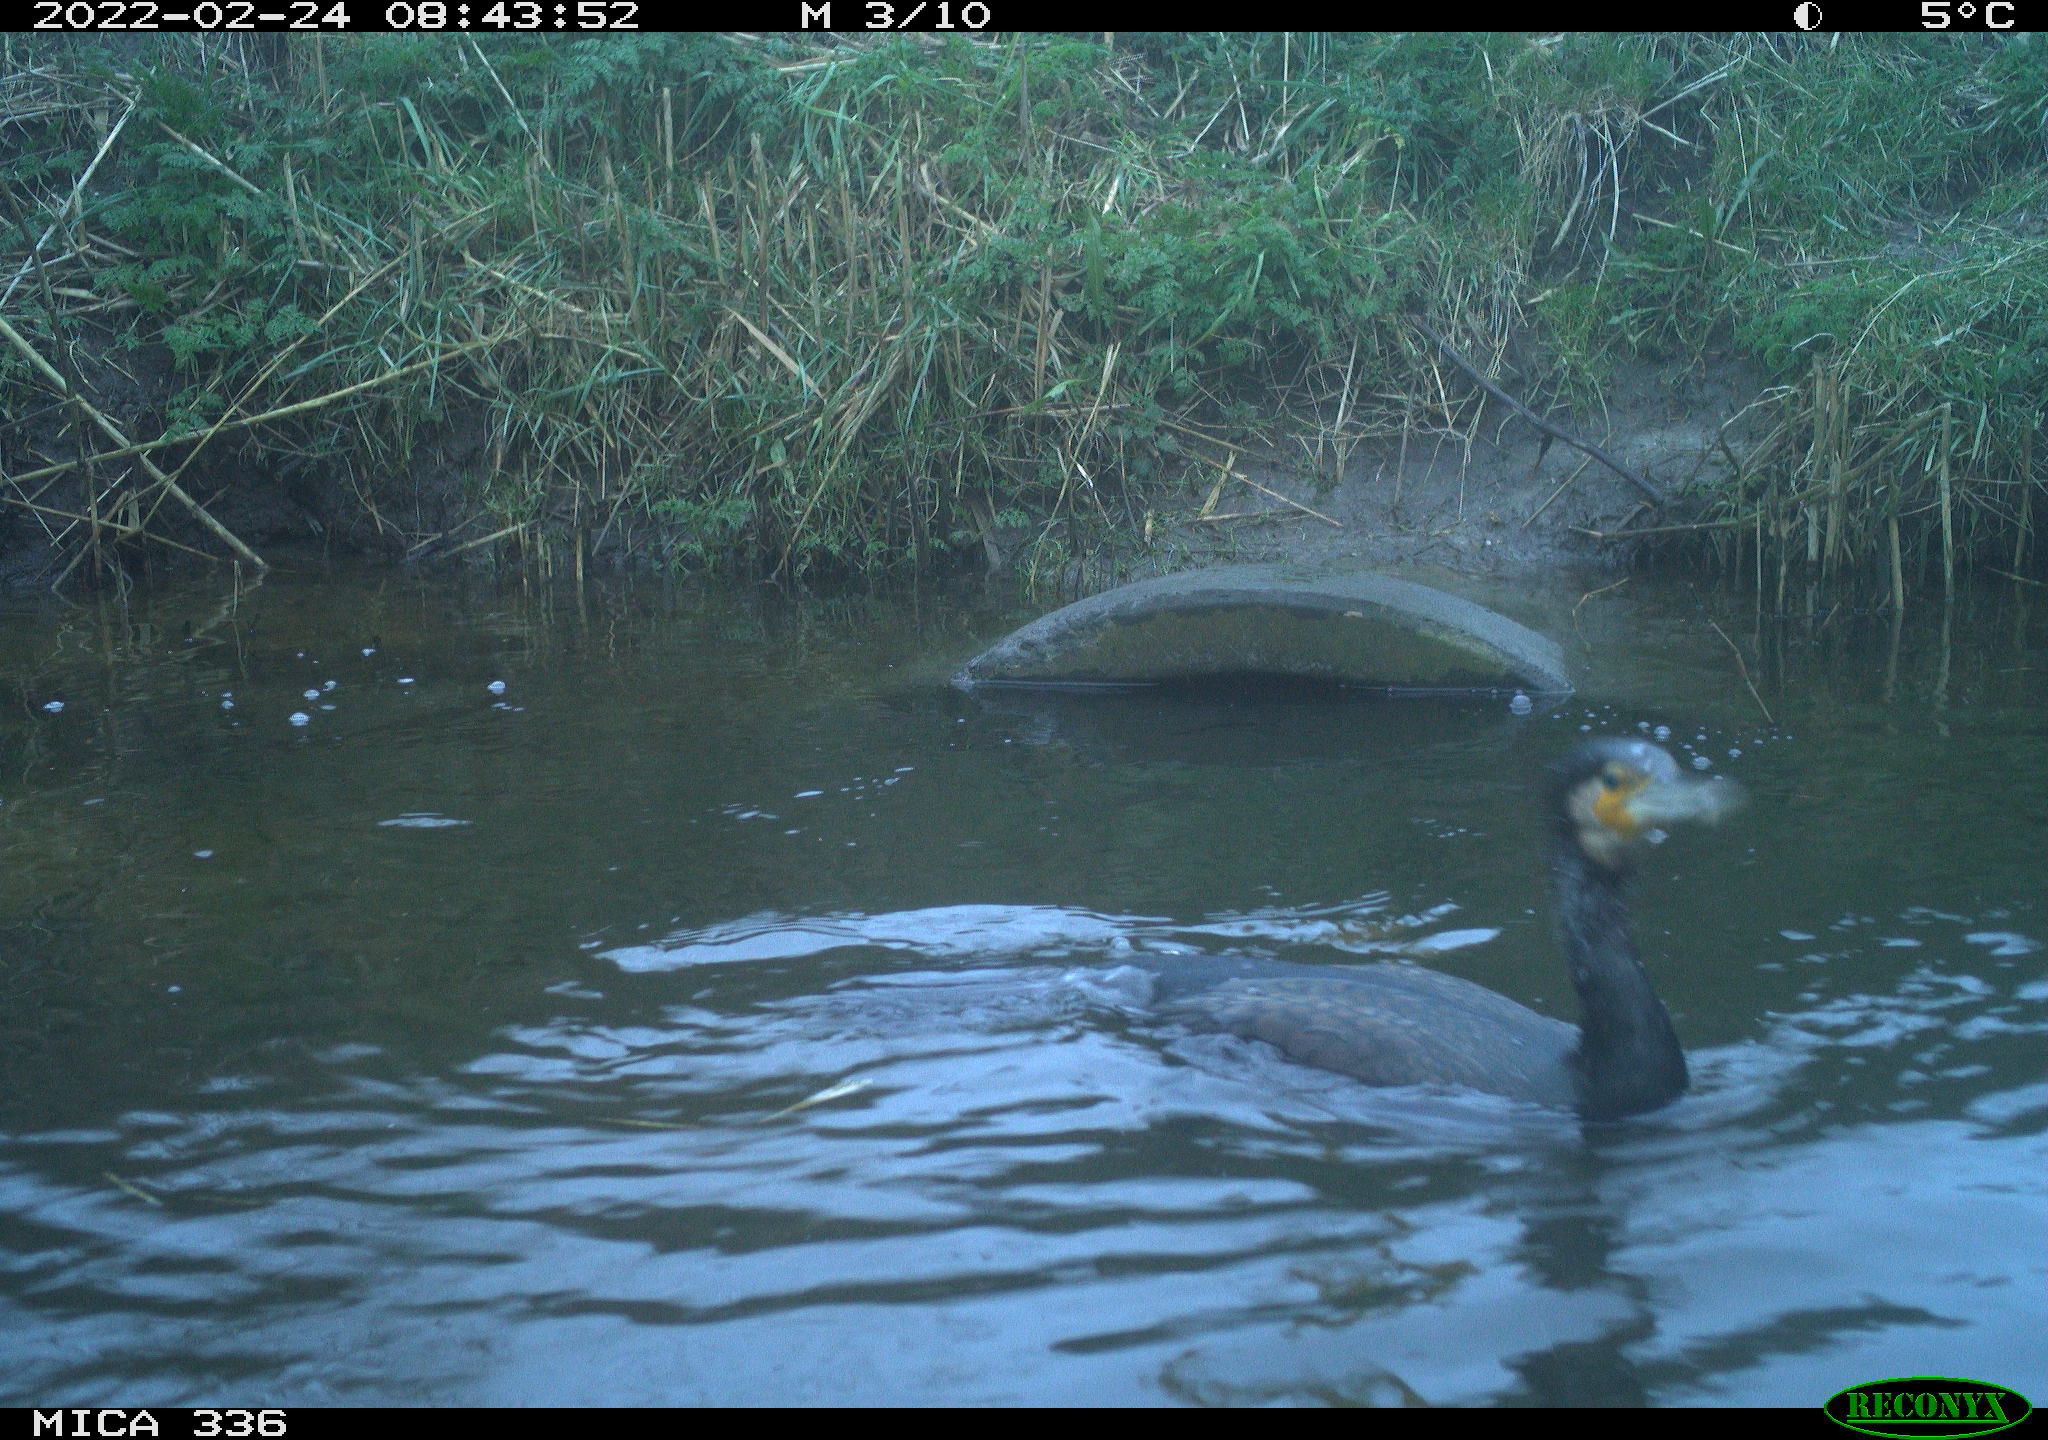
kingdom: Animalia
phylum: Chordata
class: Aves
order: Suliformes
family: Phalacrocoracidae
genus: Phalacrocorax
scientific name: Phalacrocorax carbo
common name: Great cormorant
